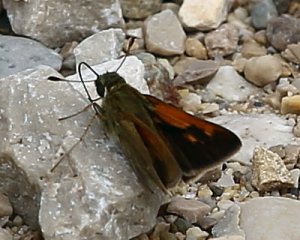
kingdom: Animalia
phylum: Arthropoda
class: Insecta
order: Lepidoptera
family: Hesperiidae
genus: Polites
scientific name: Polites themistocles
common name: Tawny-edged Skipper
